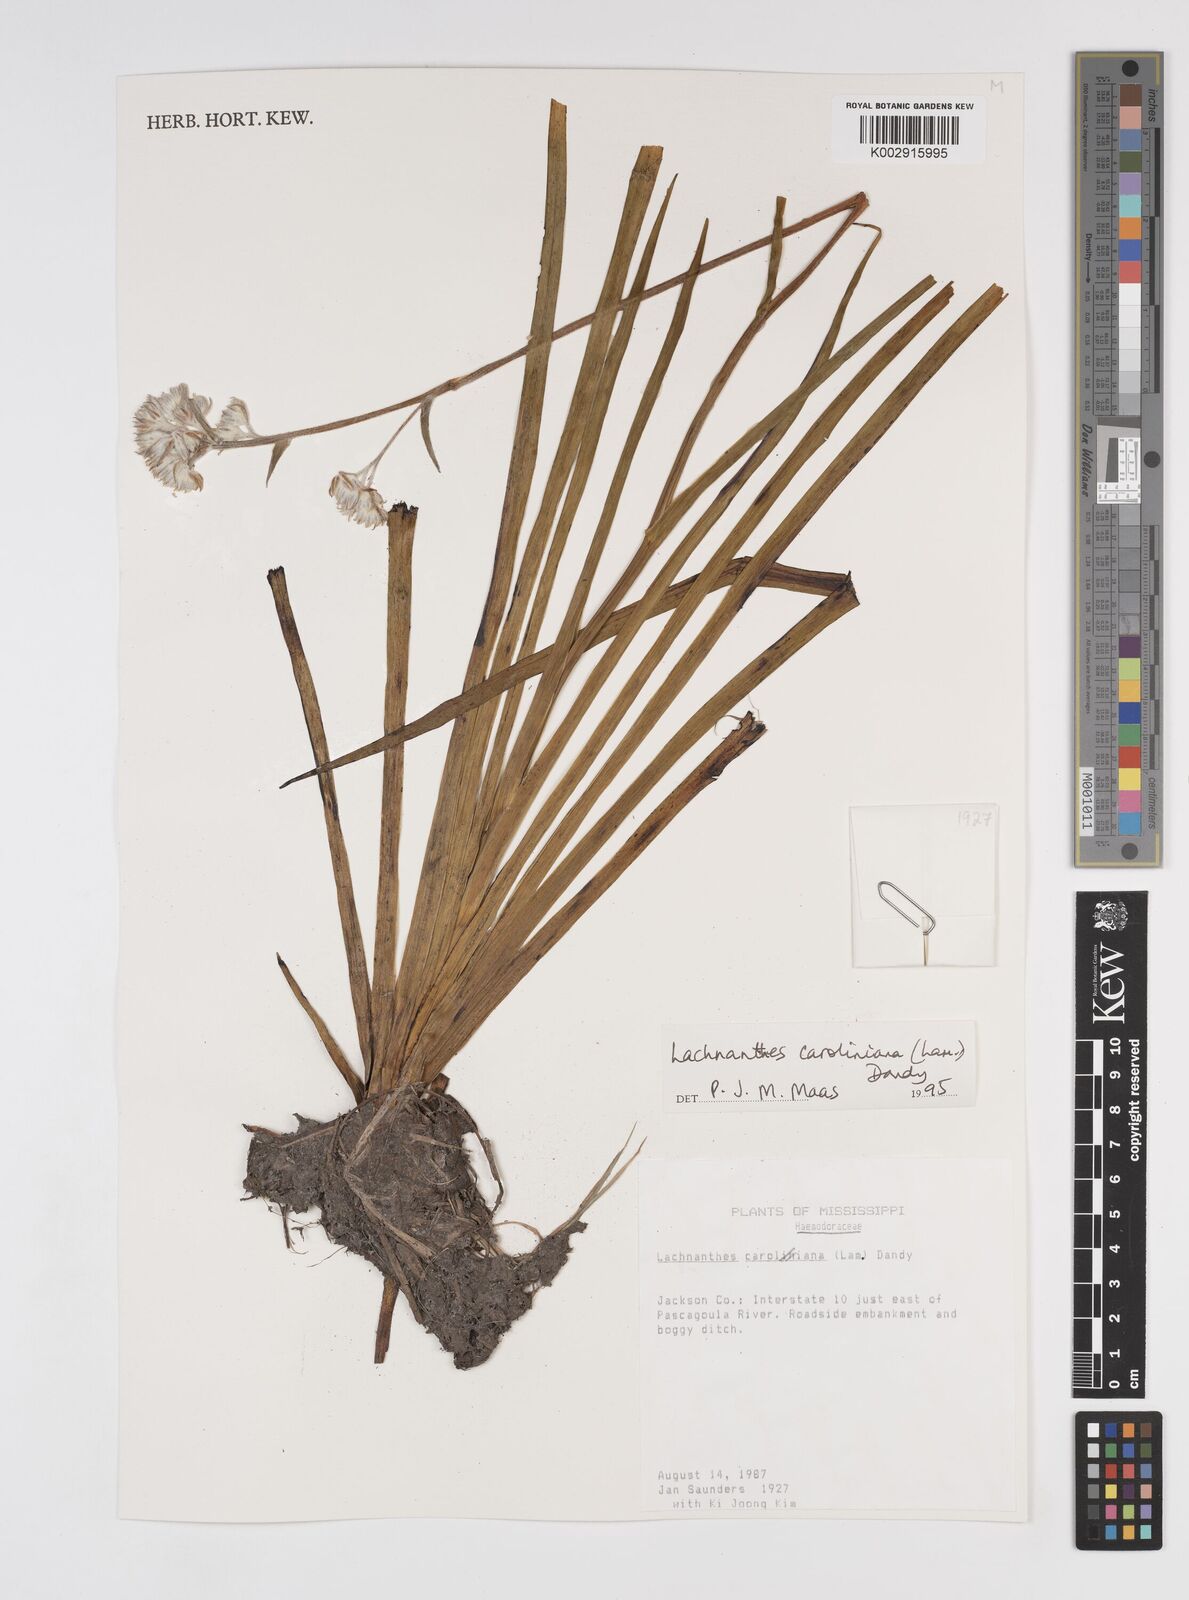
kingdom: Plantae
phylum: Tracheophyta
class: Liliopsida
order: Commelinales
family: Haemodoraceae
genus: Lachnanthes
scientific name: Lachnanthes caroliniana
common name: Carolina redroot
